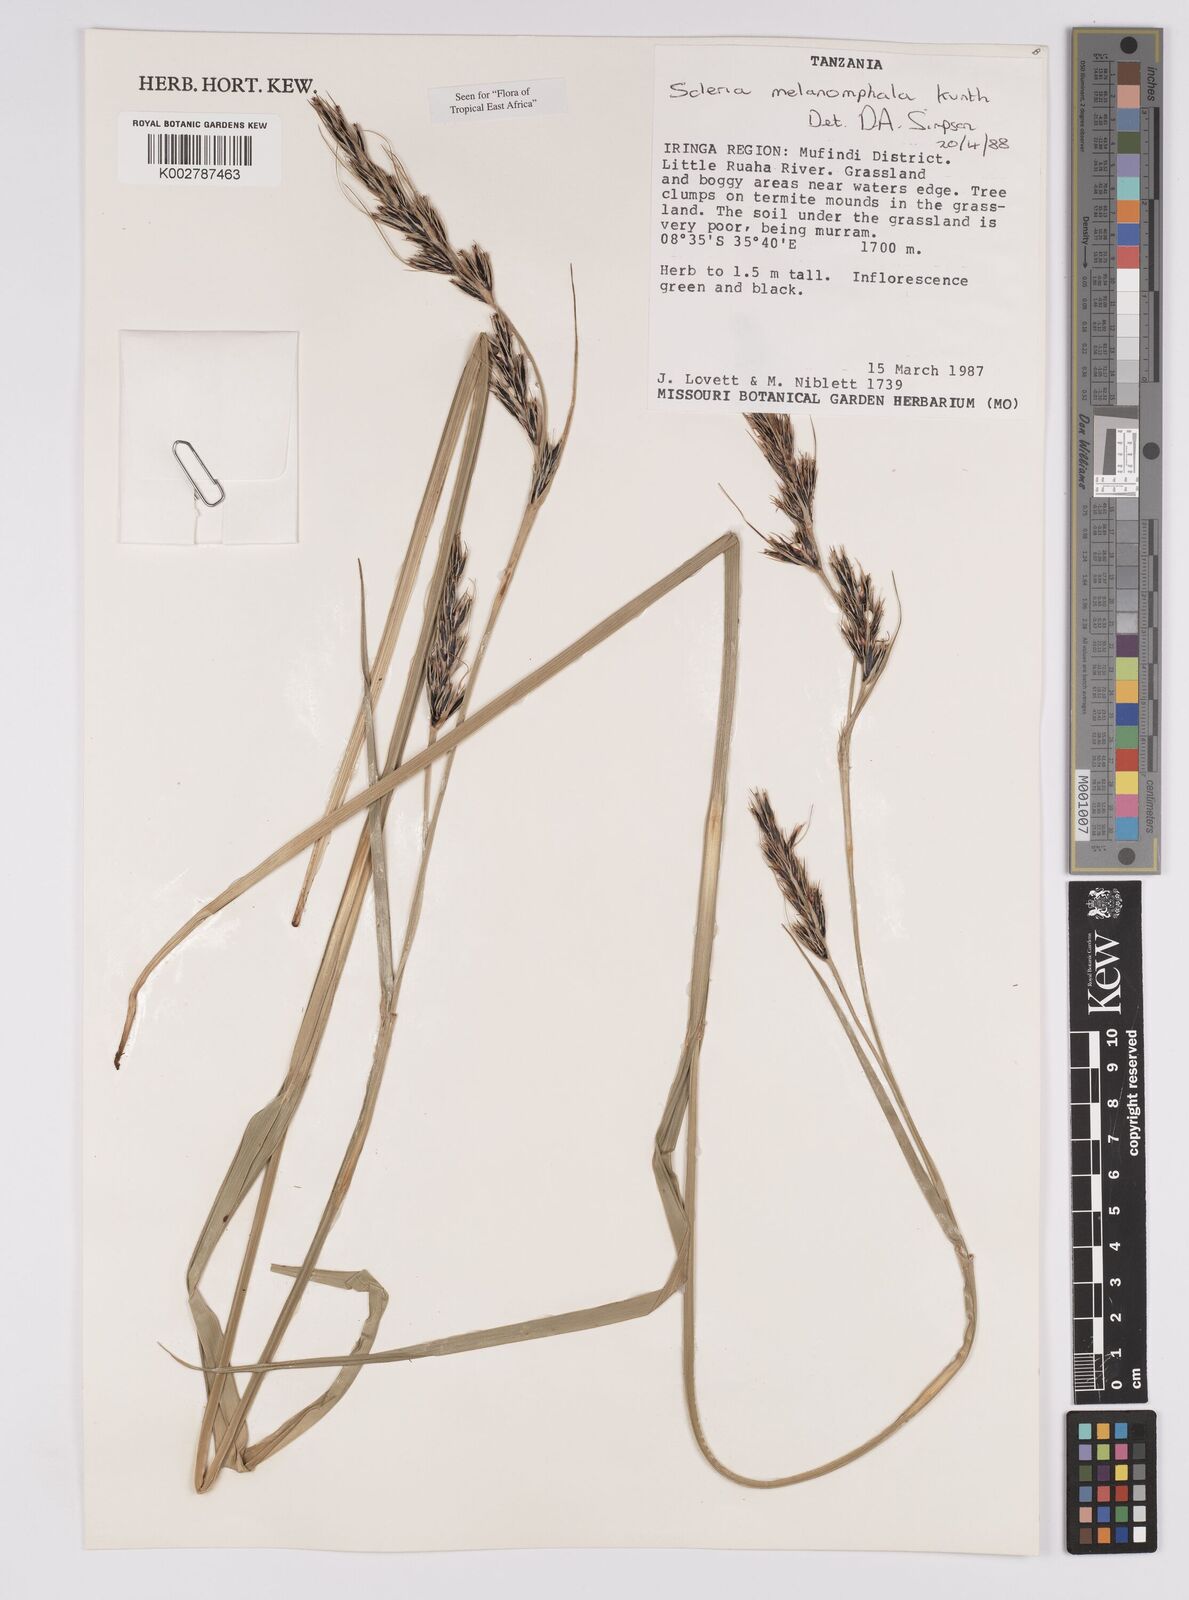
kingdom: Plantae
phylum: Tracheophyta
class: Liliopsida
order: Poales
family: Cyperaceae
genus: Scleria
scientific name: Scleria melanomphala
